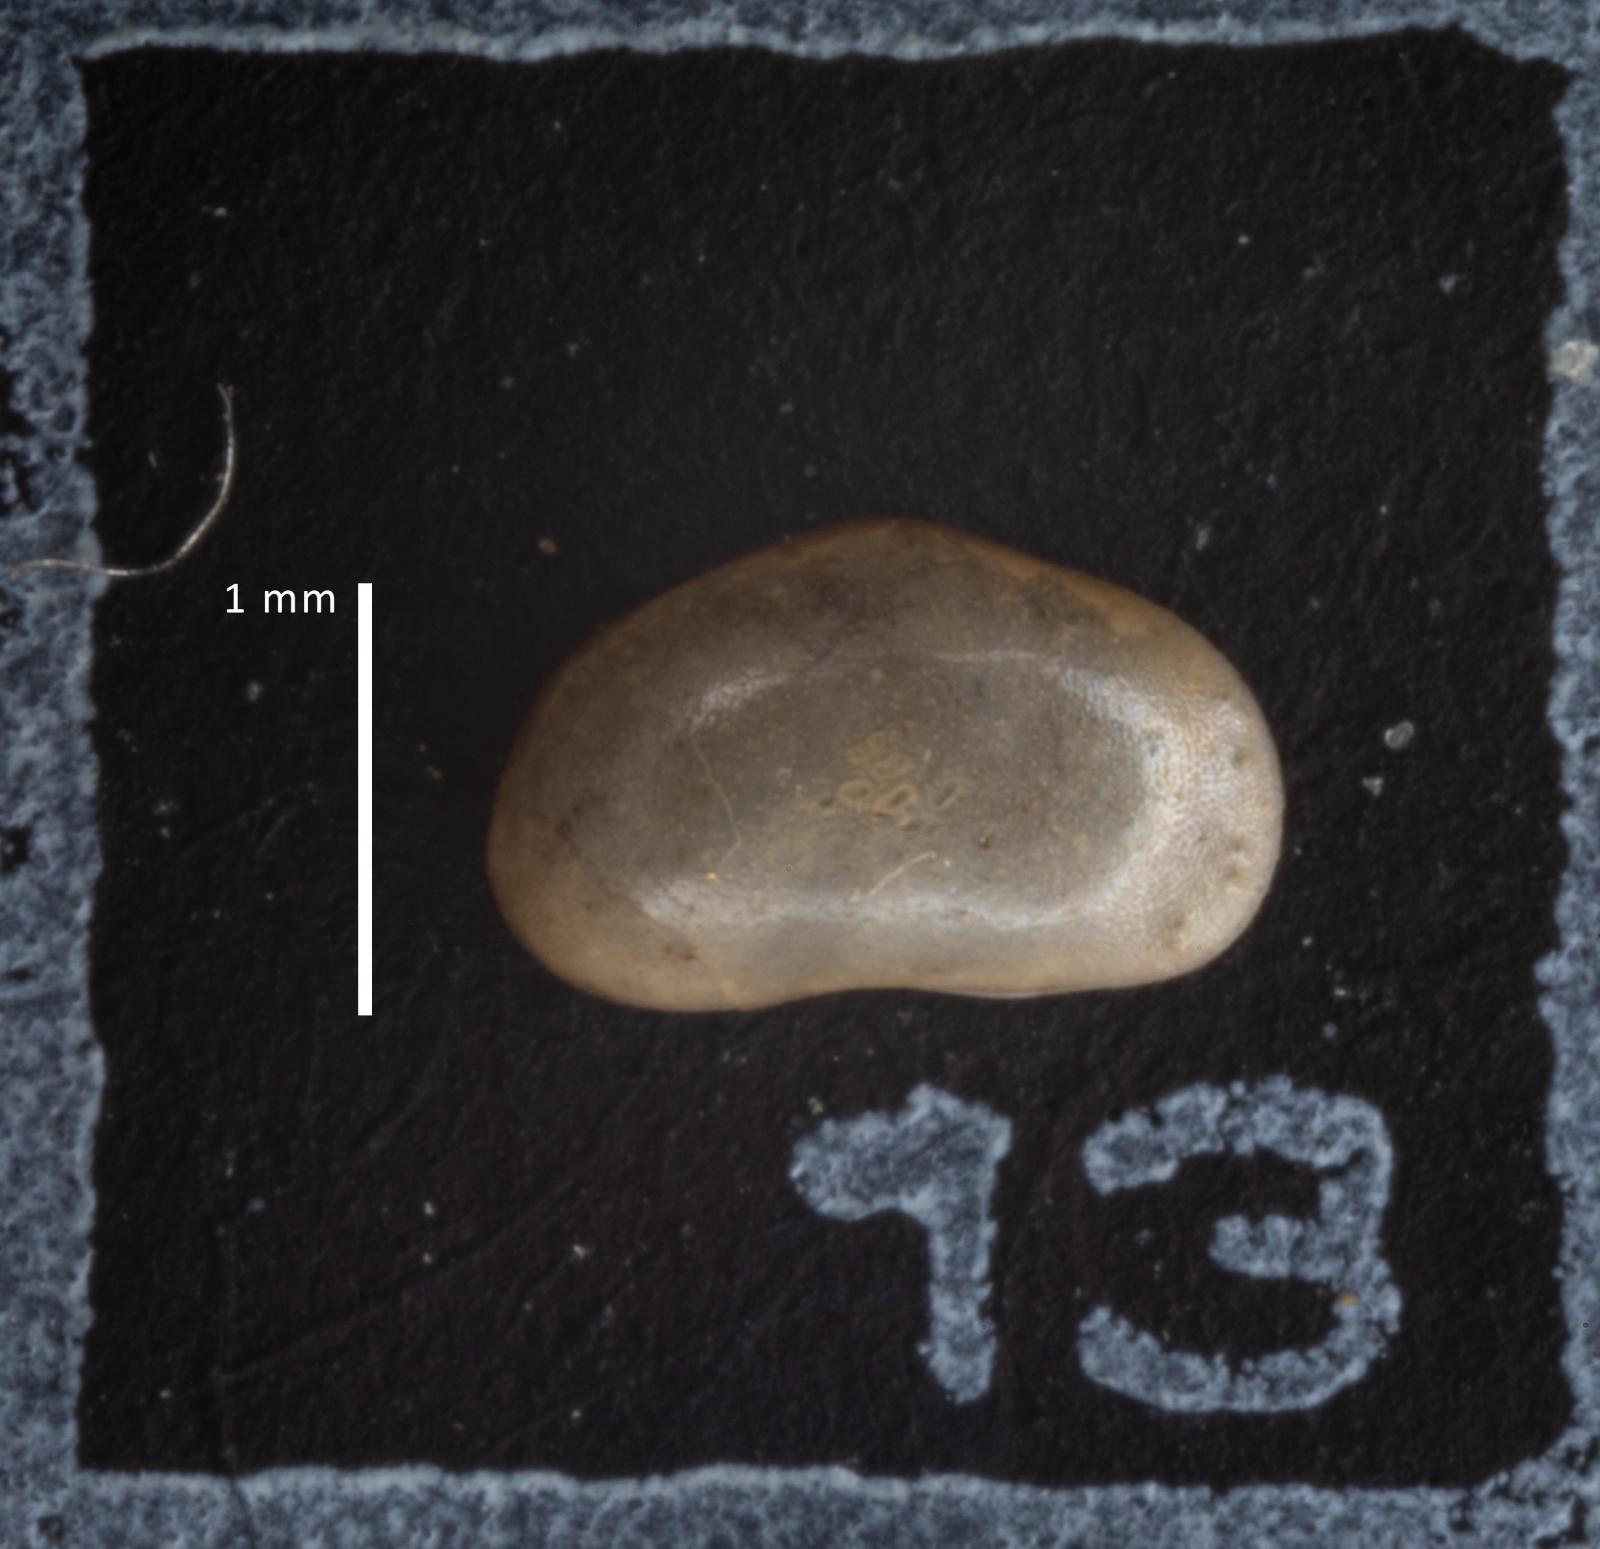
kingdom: Animalia
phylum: Arthropoda
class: Ostracoda
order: Podocopida
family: Cyprididae
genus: Heterocypris
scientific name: Heterocypris incongruens
